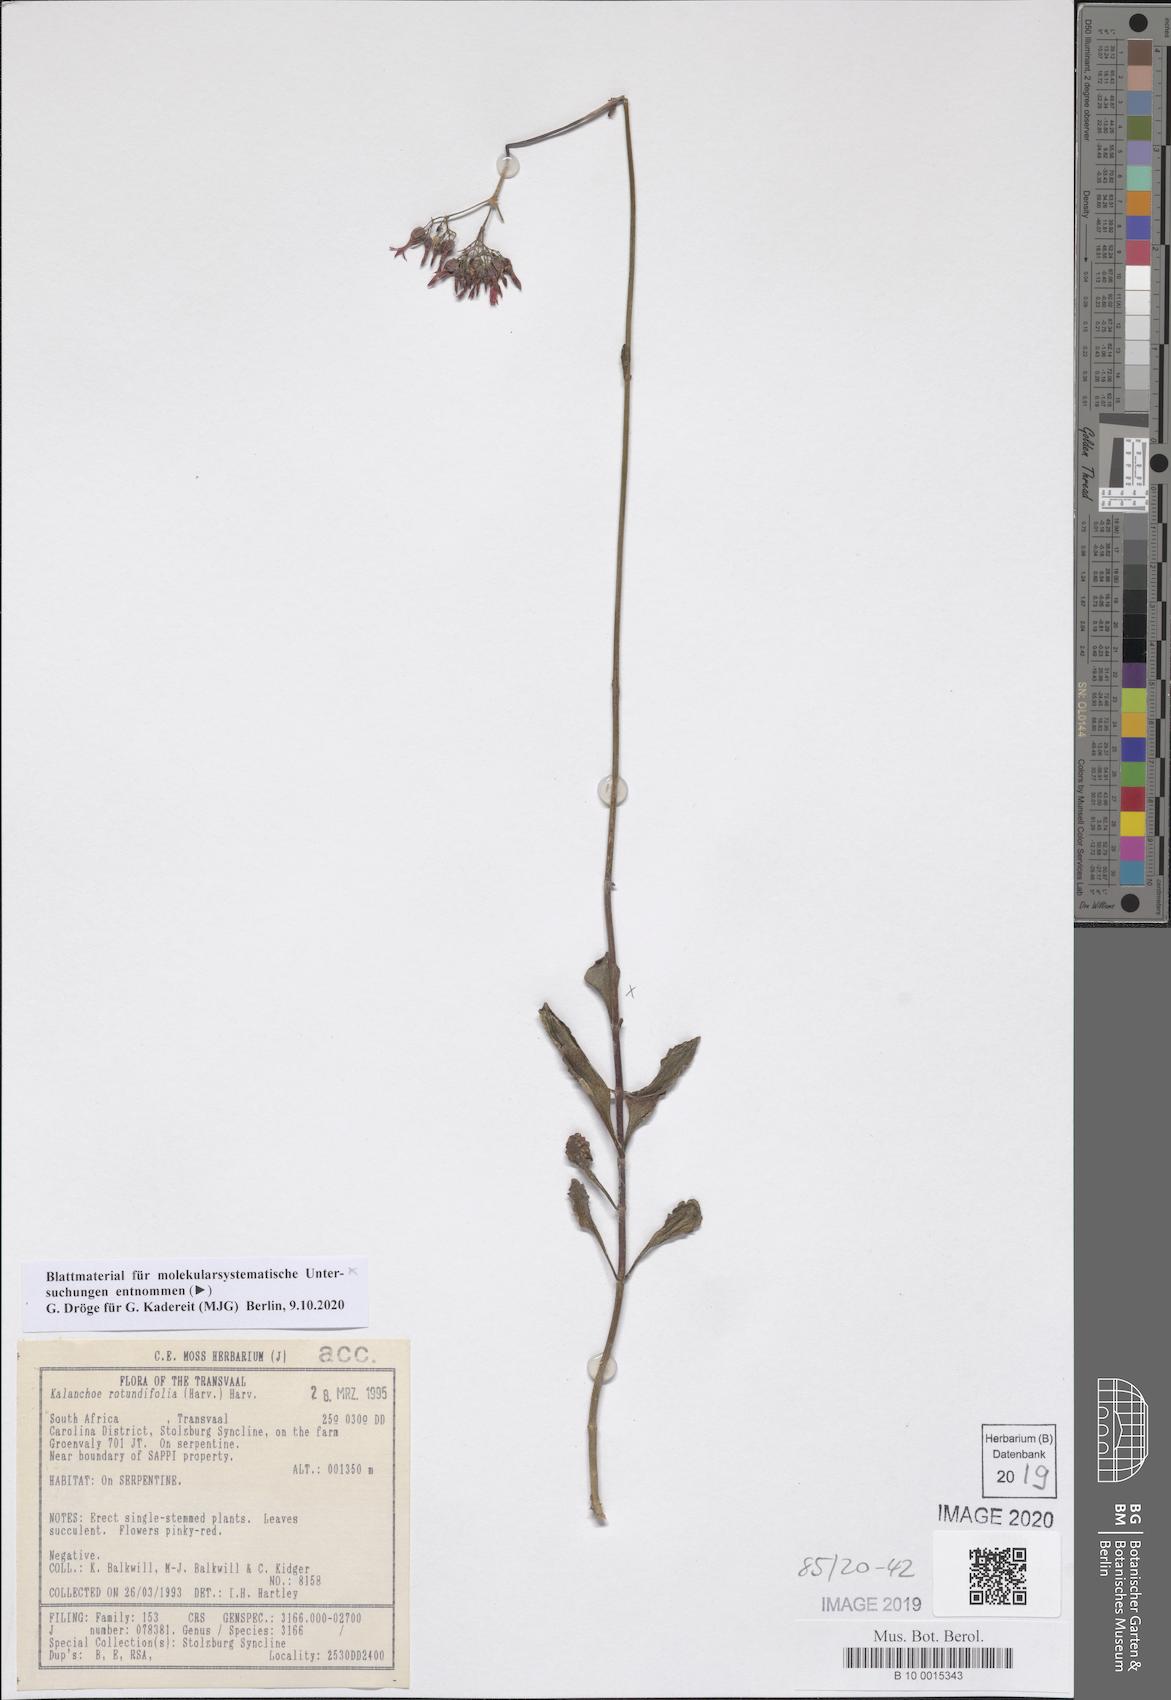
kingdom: Plantae
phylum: Tracheophyta
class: Magnoliopsida
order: Saxifragales
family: Crassulaceae
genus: Kalanchoe
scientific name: Kalanchoe rotundifolia
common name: Common kalanchoe
